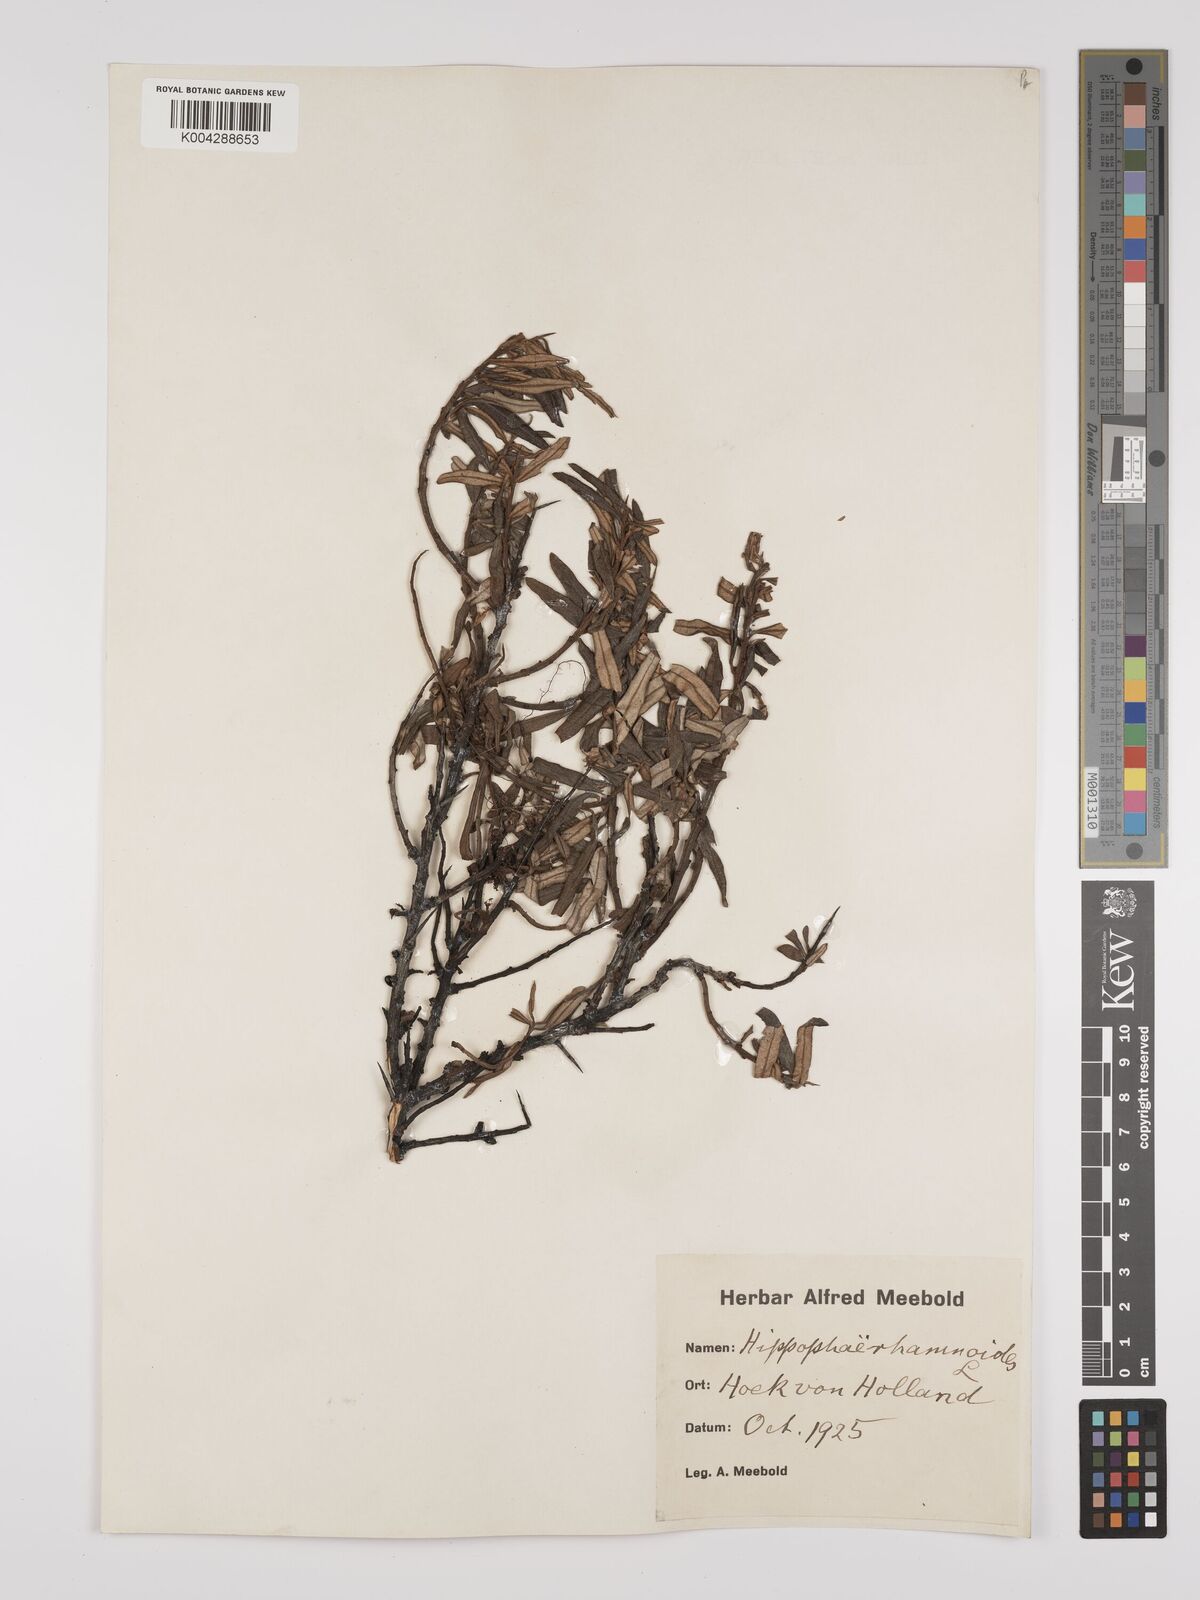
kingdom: Plantae
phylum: Tracheophyta
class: Magnoliopsida
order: Rosales
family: Elaeagnaceae
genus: Hippophae
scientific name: Hippophae rhamnoides
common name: Sea-buckthorn
